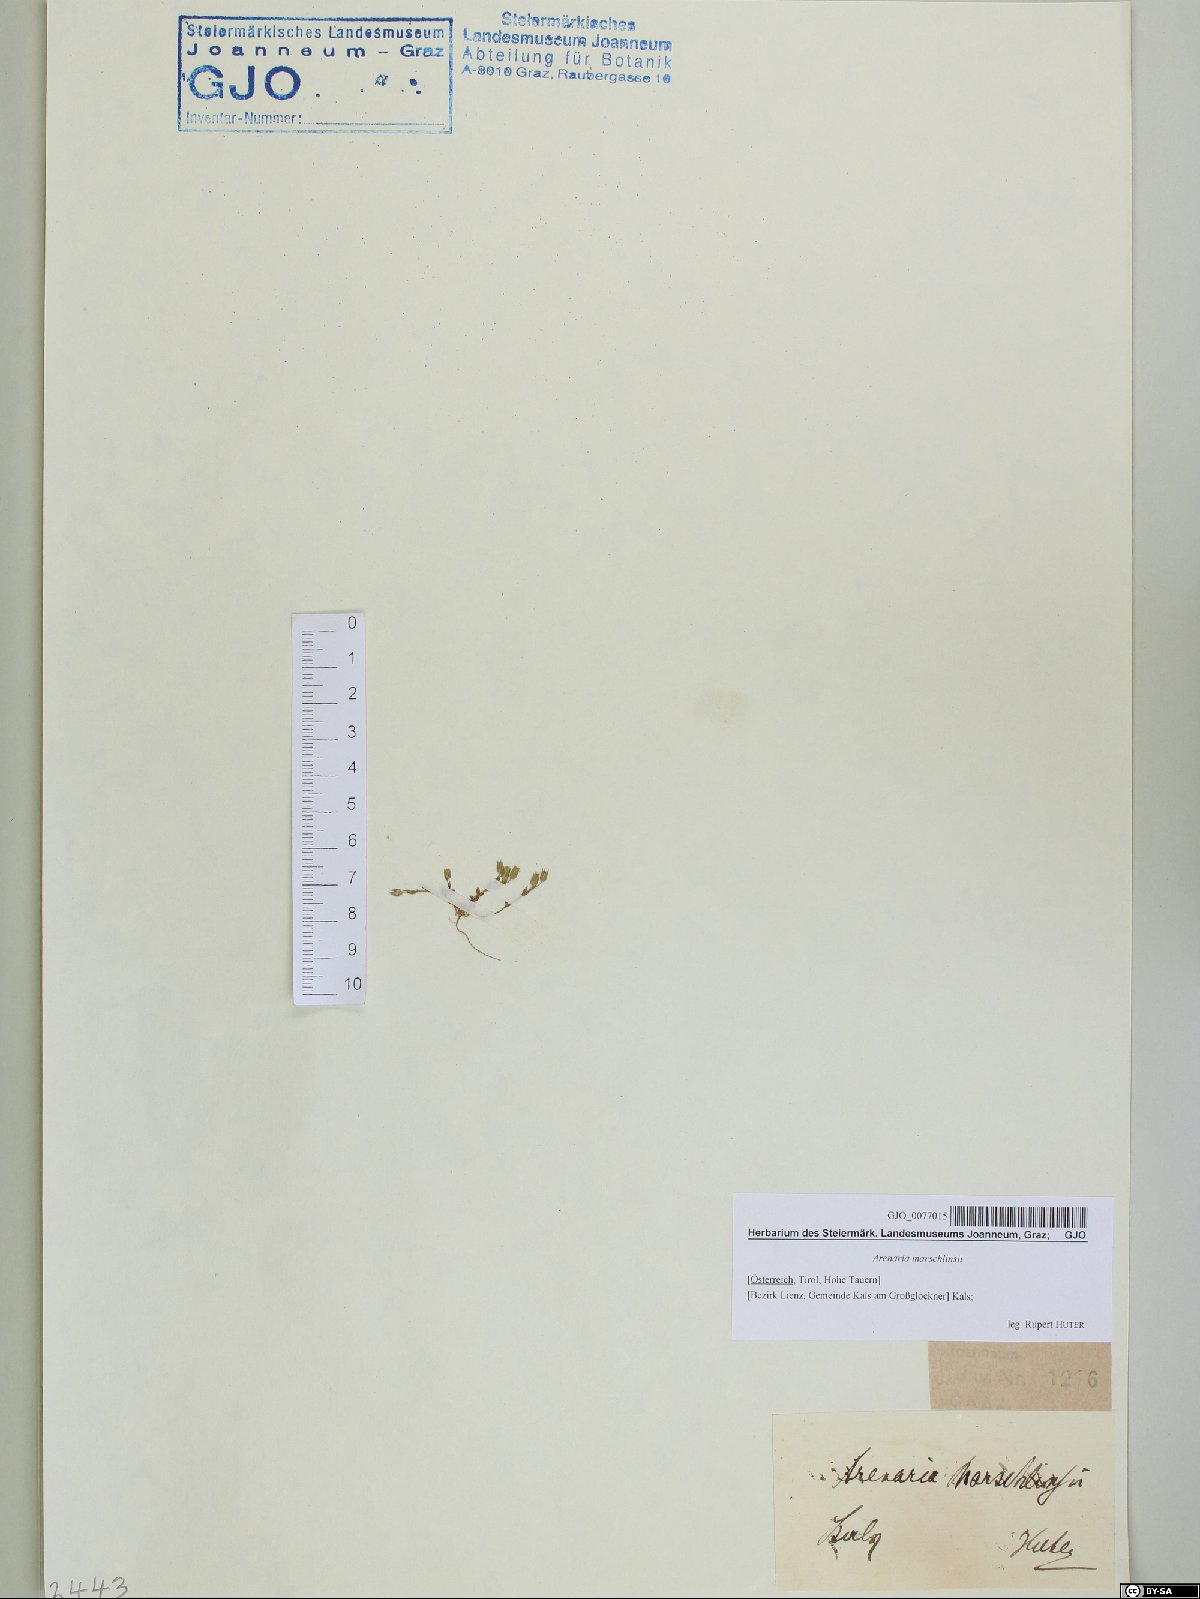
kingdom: Plantae
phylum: Tracheophyta
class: Magnoliopsida
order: Caryophyllales
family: Caryophyllaceae
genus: Arenaria
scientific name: Arenaria marschlinsii
